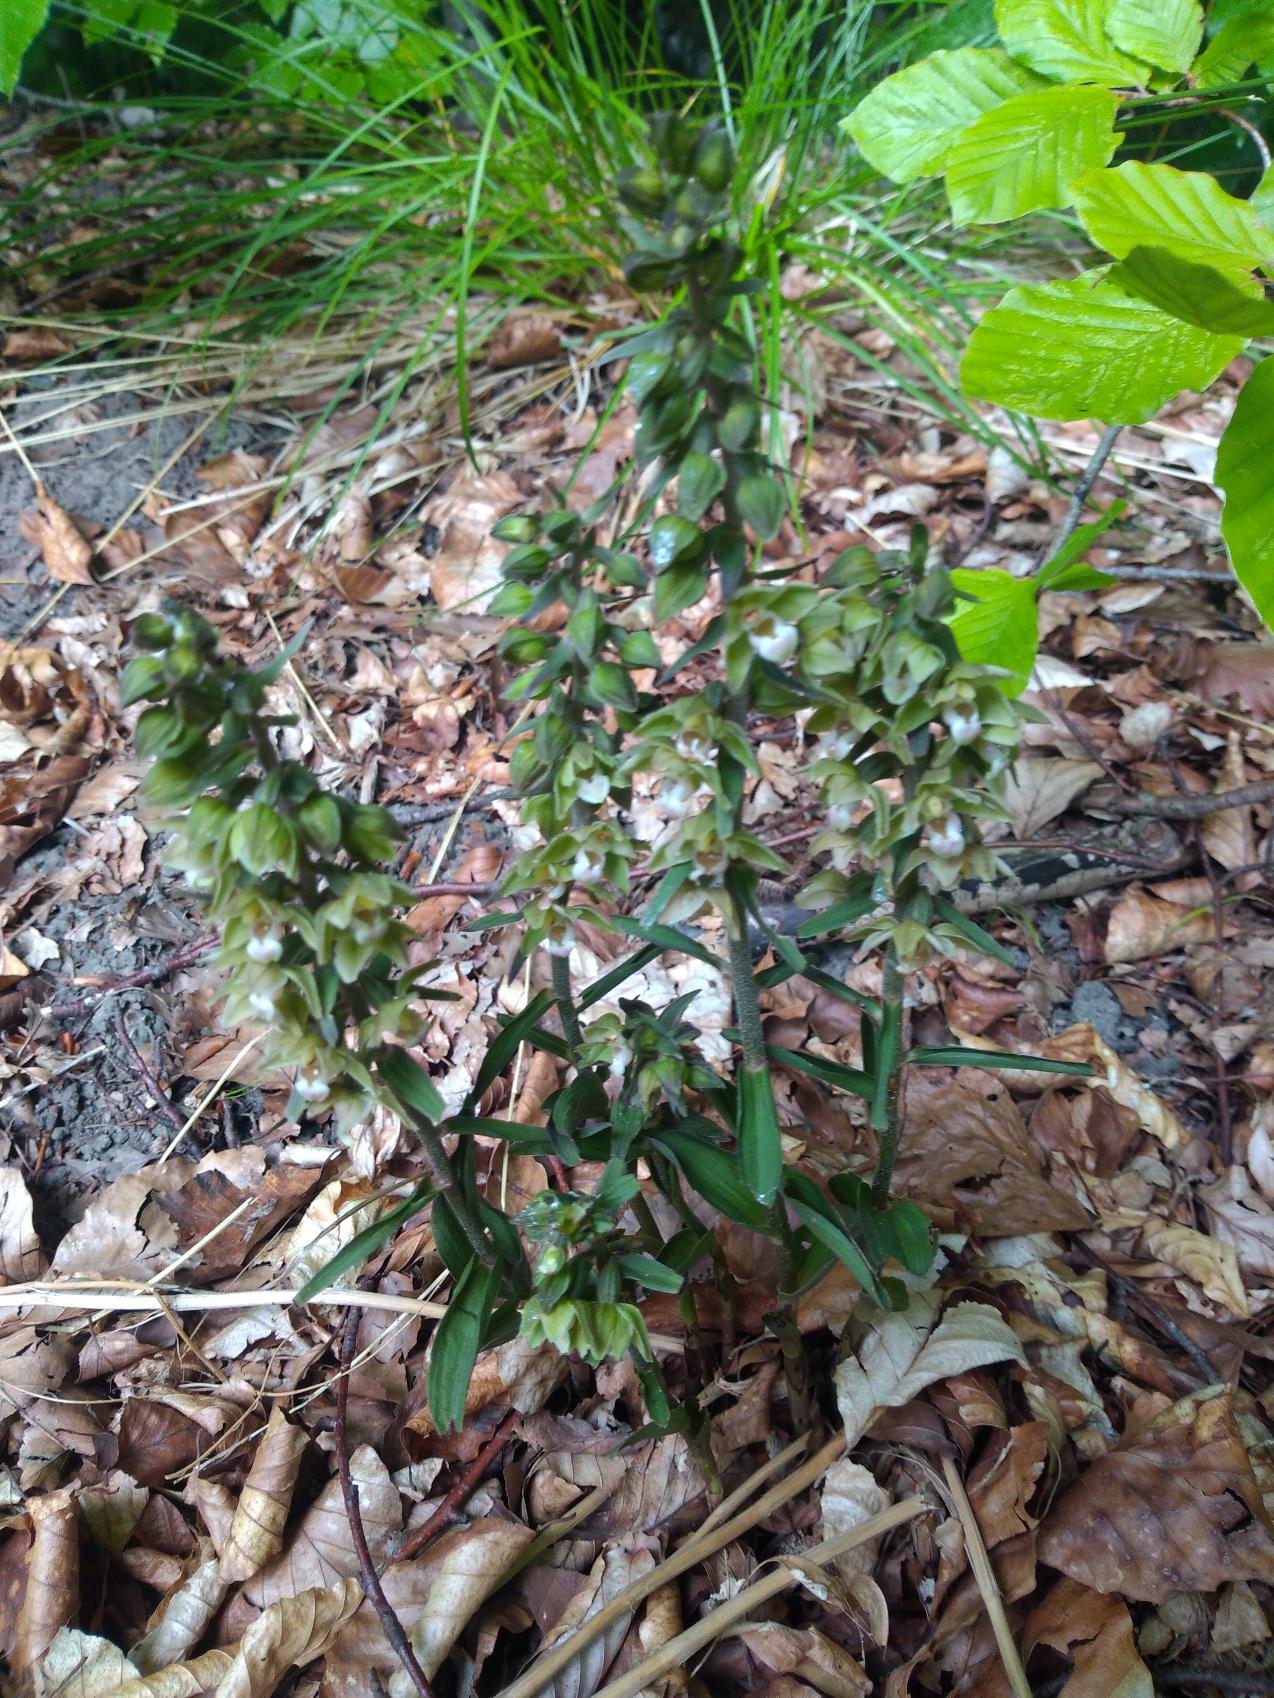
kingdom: Plantae
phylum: Tracheophyta
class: Liliopsida
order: Asparagales
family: Orchidaceae
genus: Epipactis
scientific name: Epipactis purpurata
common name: Tætblomstret hullæbe
